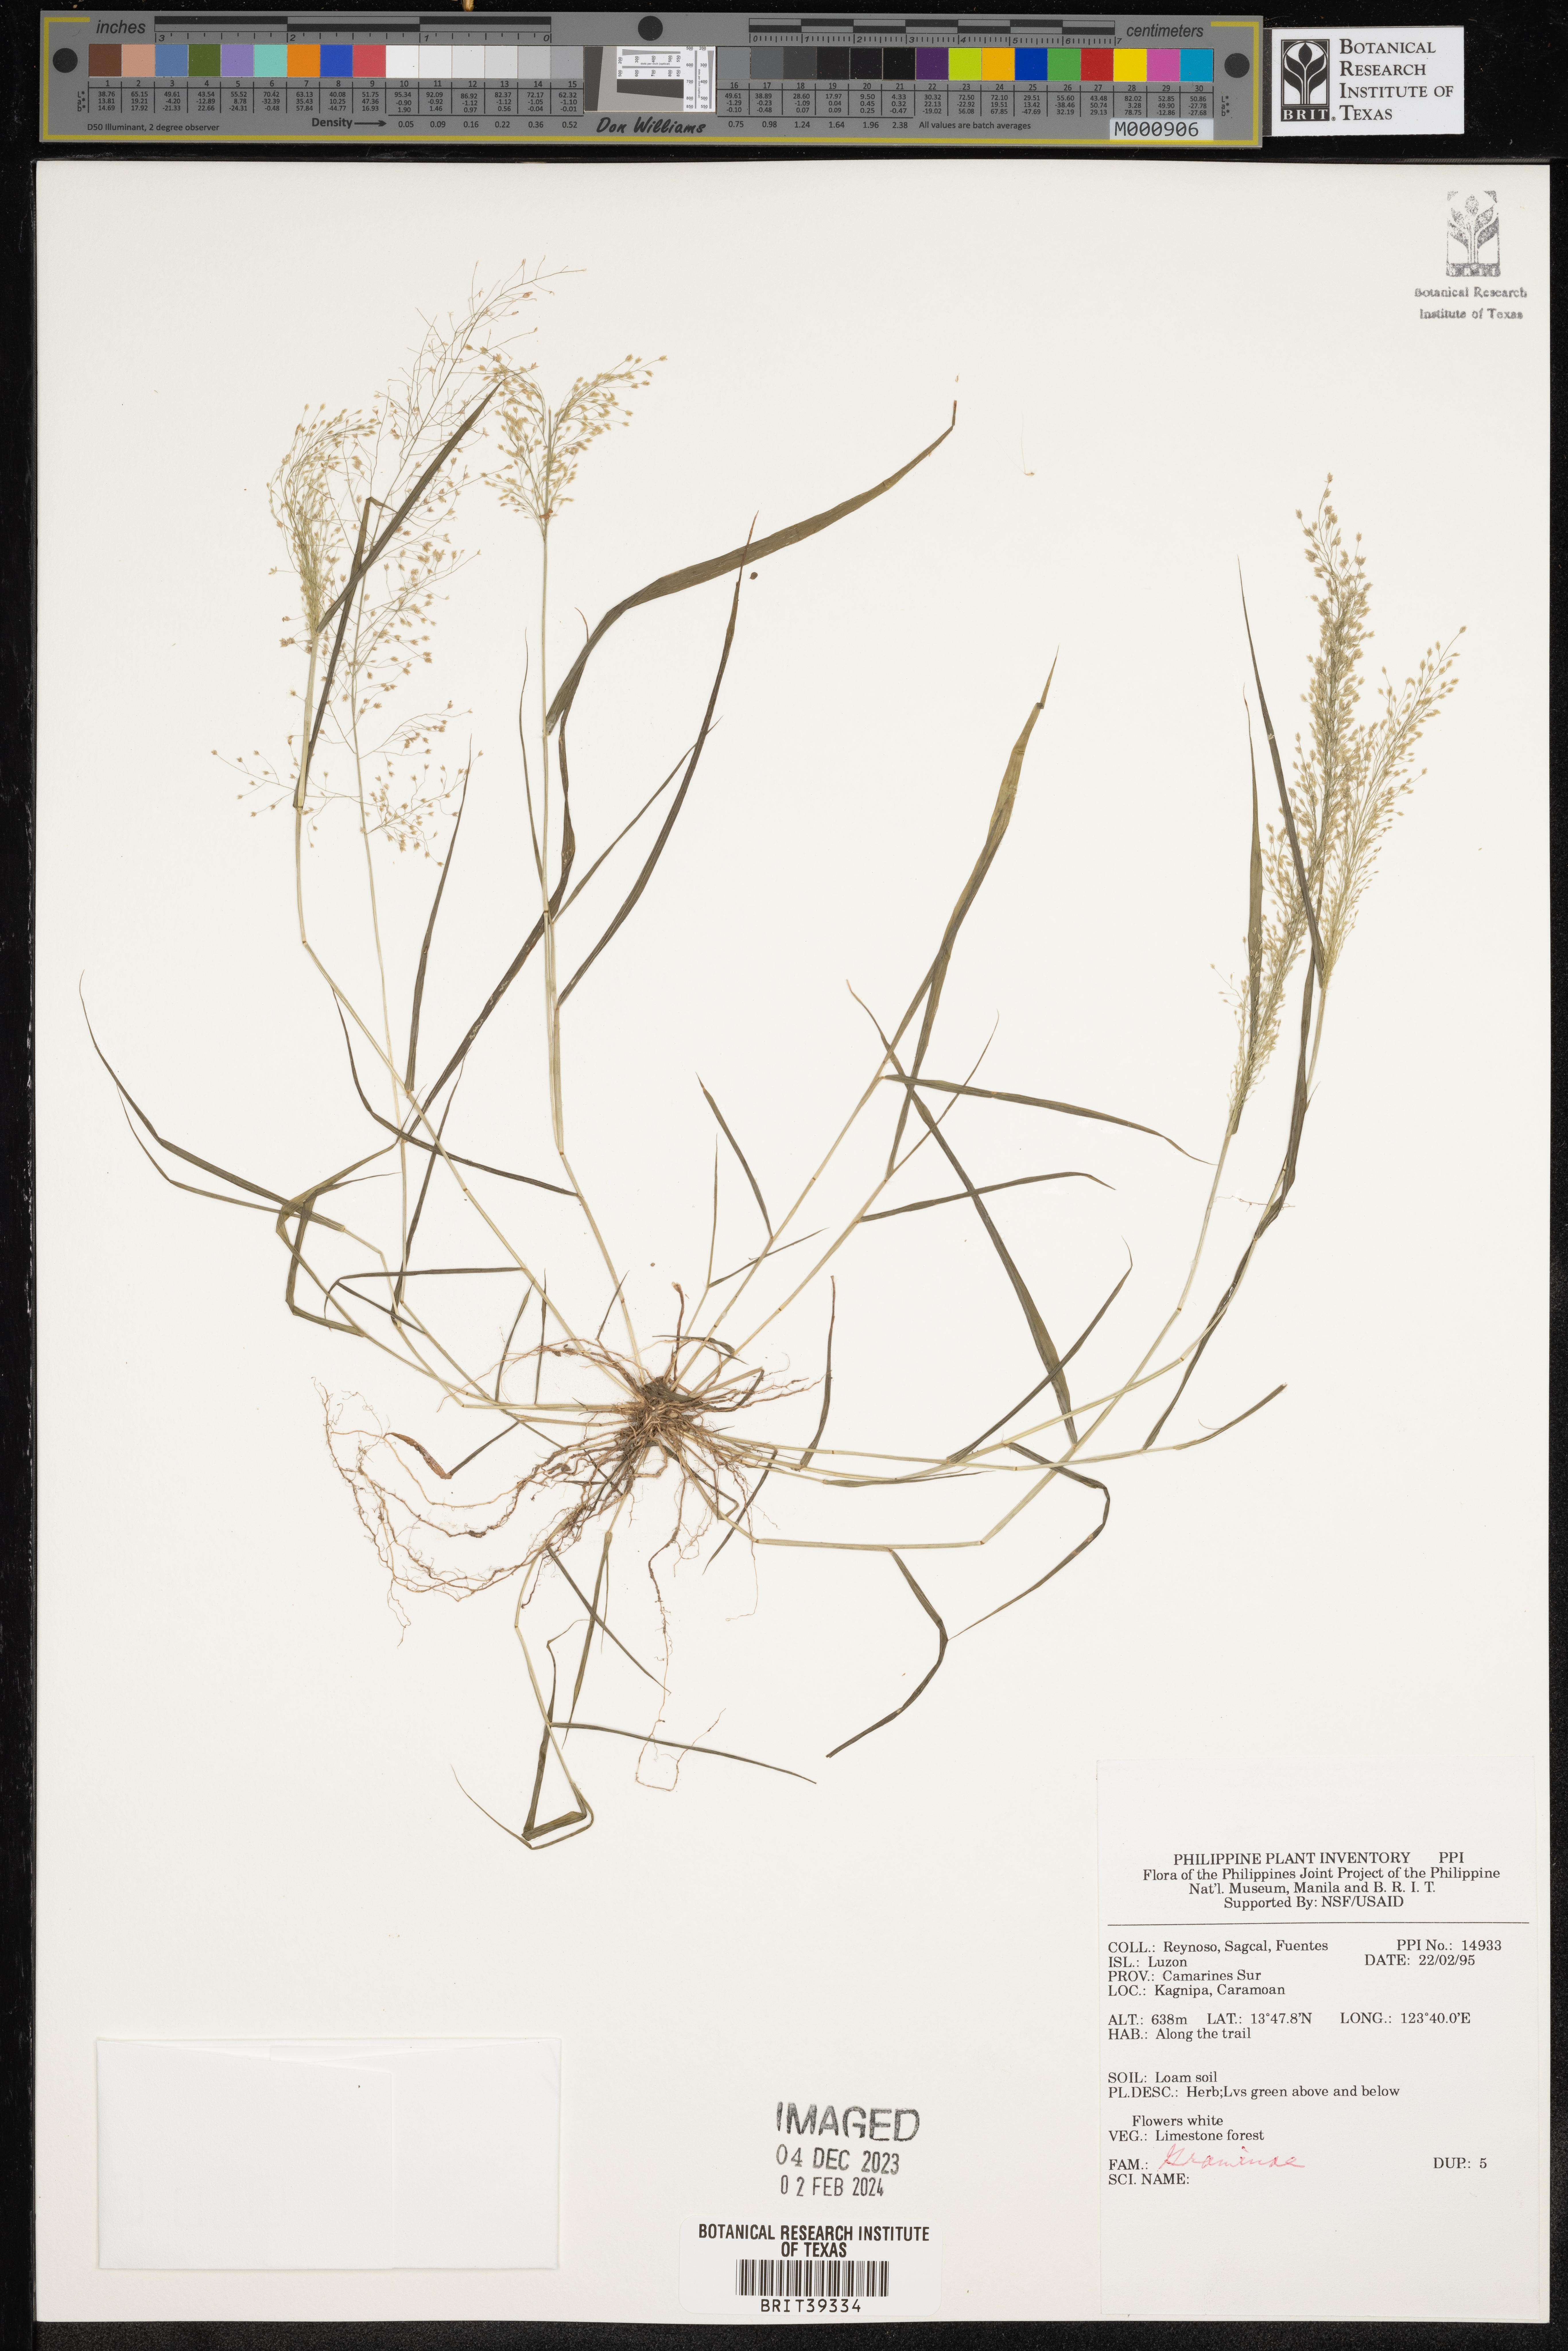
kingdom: Plantae
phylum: Tracheophyta
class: Liliopsida
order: Poales
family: Poaceae
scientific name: Poaceae
